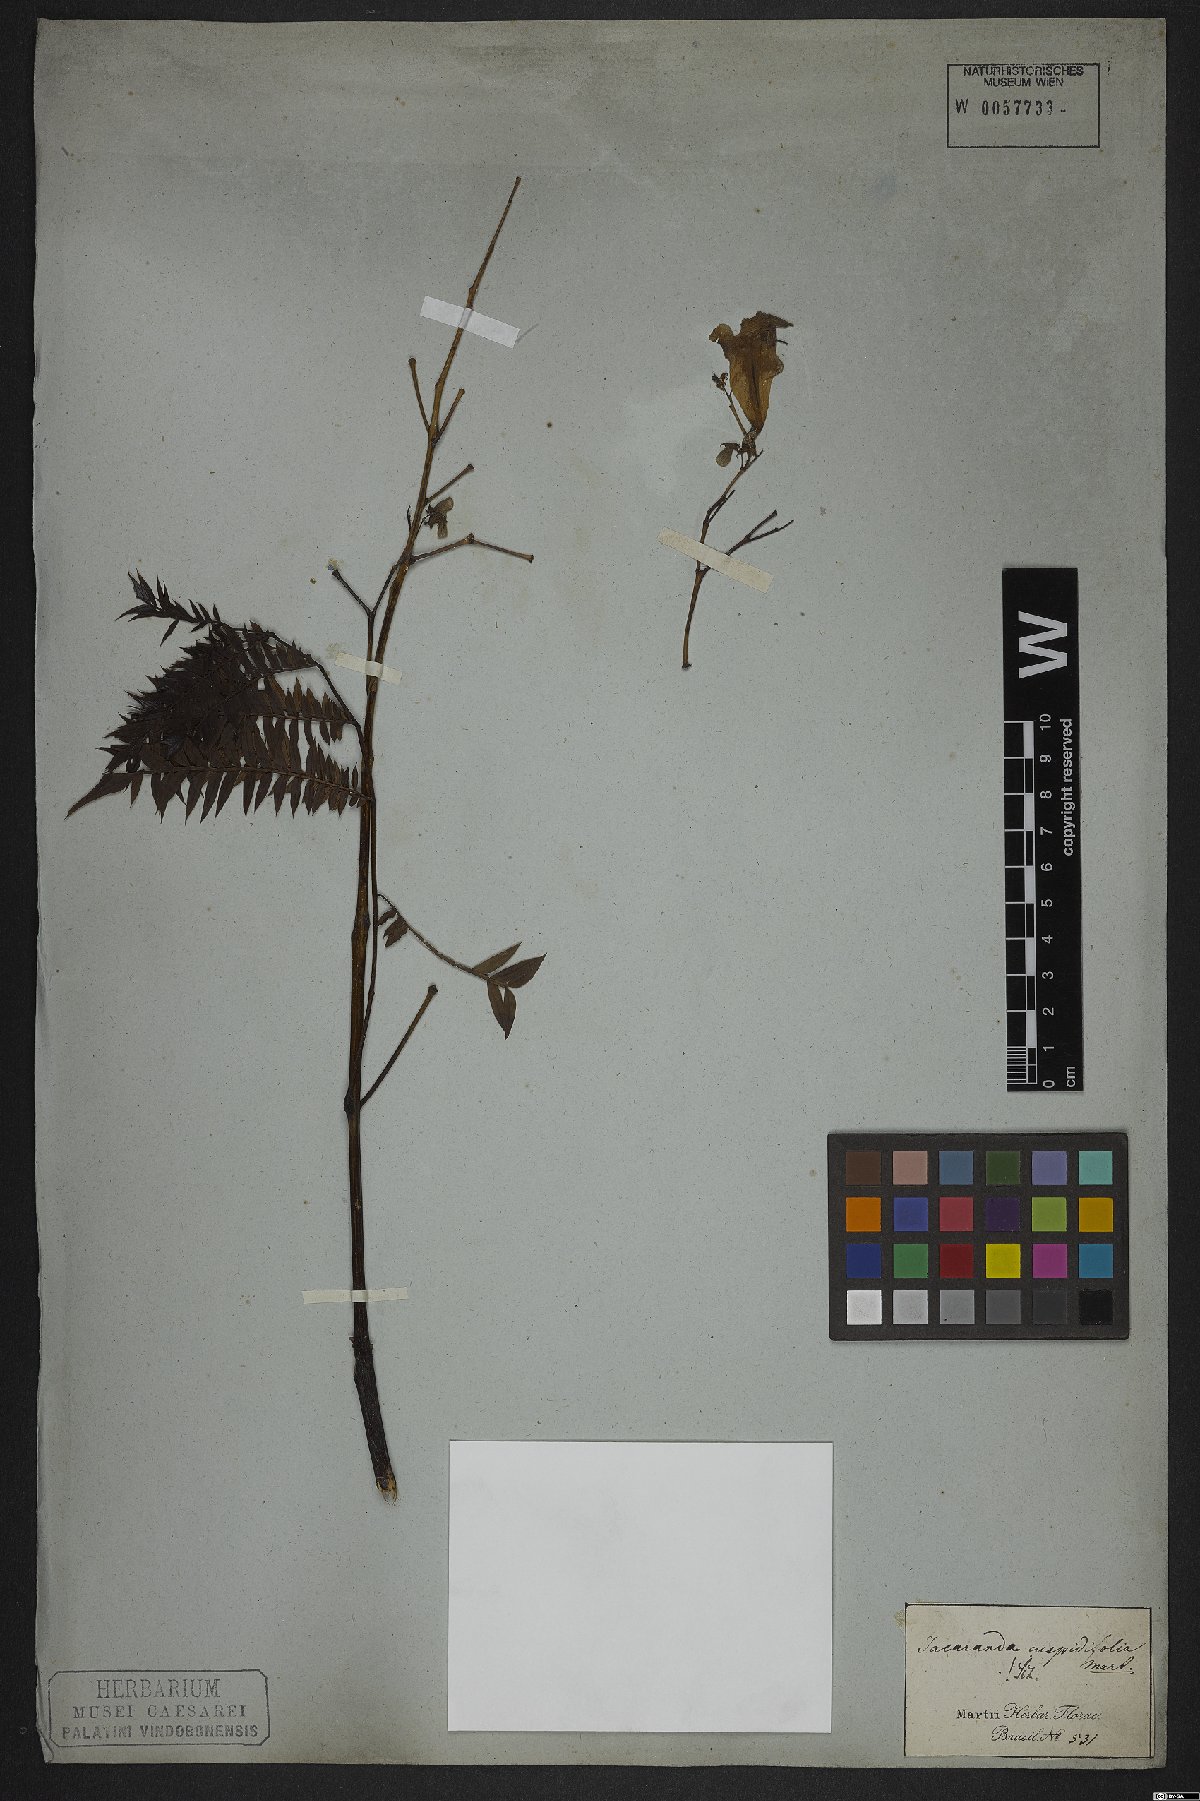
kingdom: Plantae
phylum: Tracheophyta
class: Magnoliopsida
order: Lamiales
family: Bignoniaceae
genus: Jacaranda
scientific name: Jacaranda cuspidifolia
